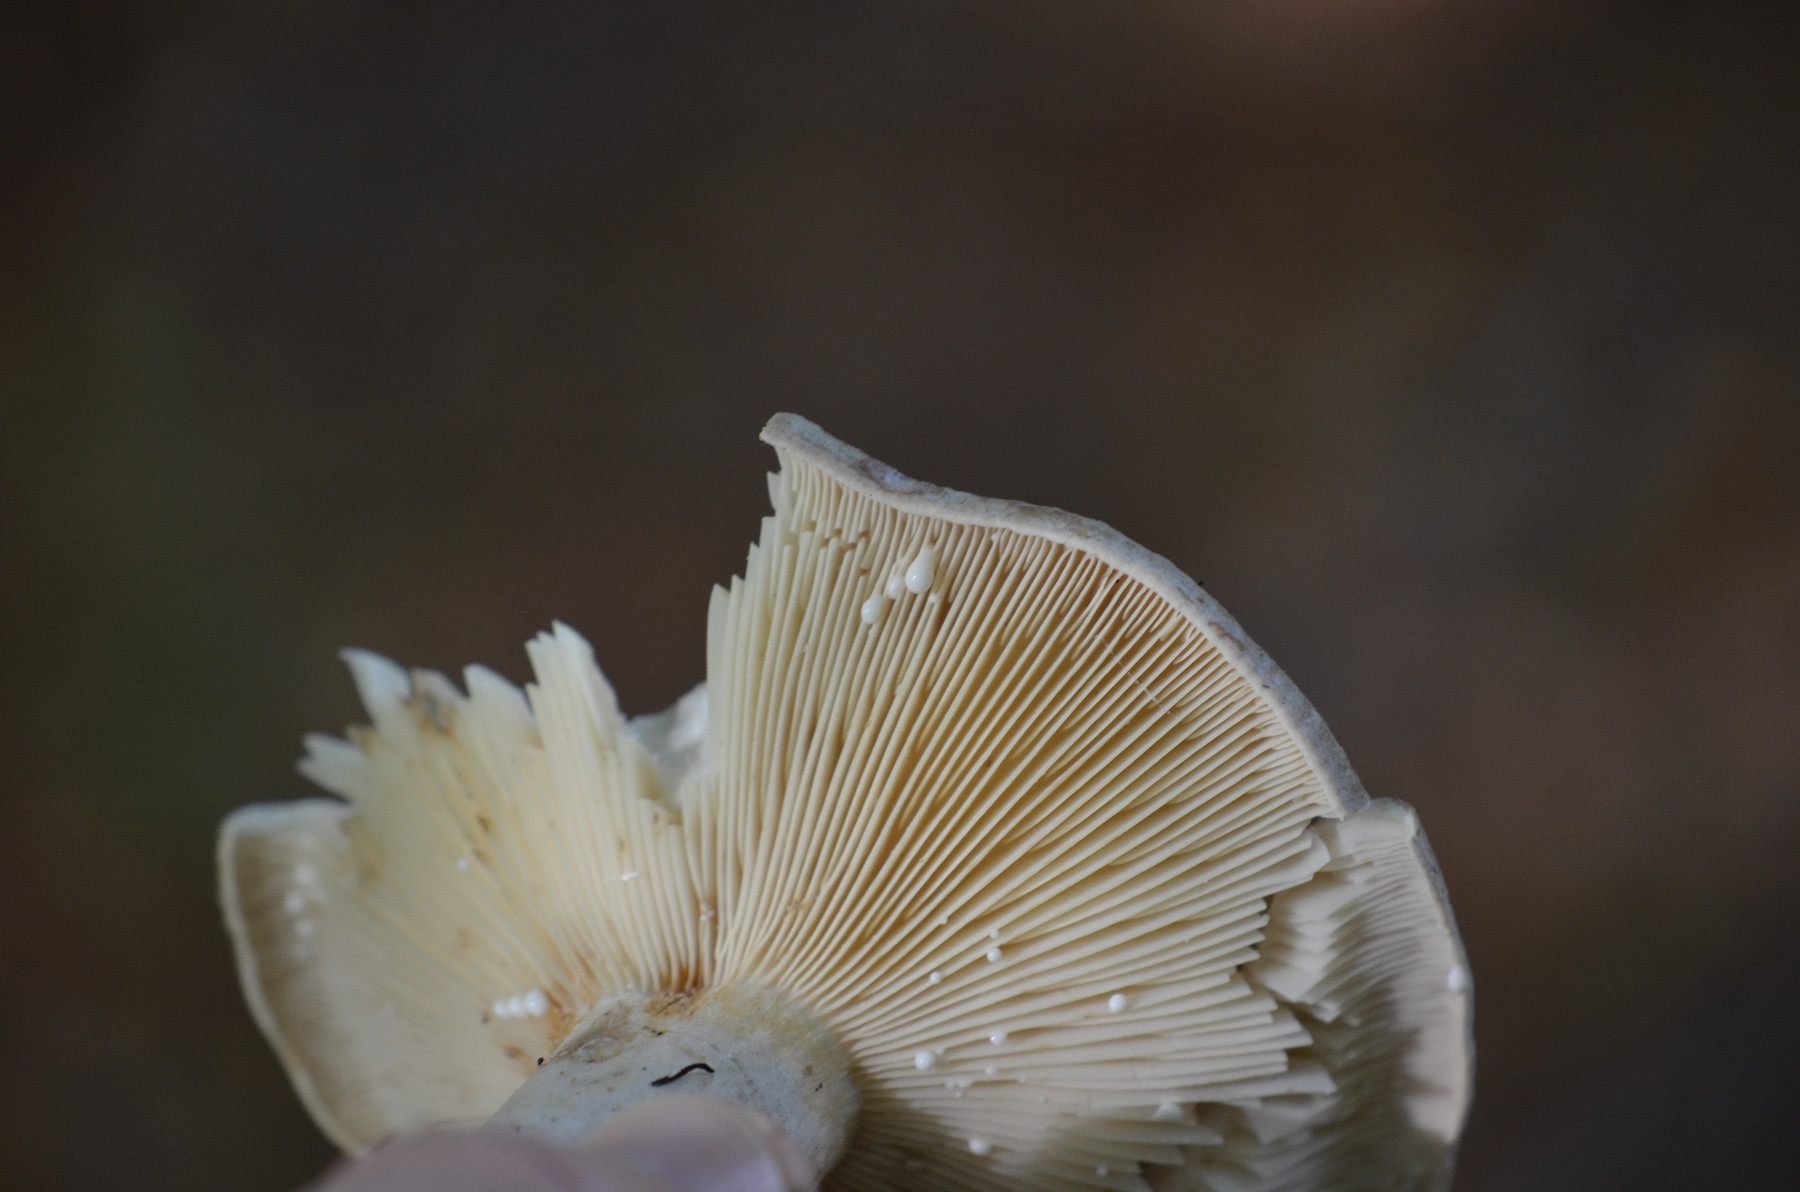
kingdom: Fungi
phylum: Basidiomycota
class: Agaricomycetes
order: Russulales
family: Russulaceae
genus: Lactarius
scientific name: Lactarius fluens
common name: lysrandet mælkehat
